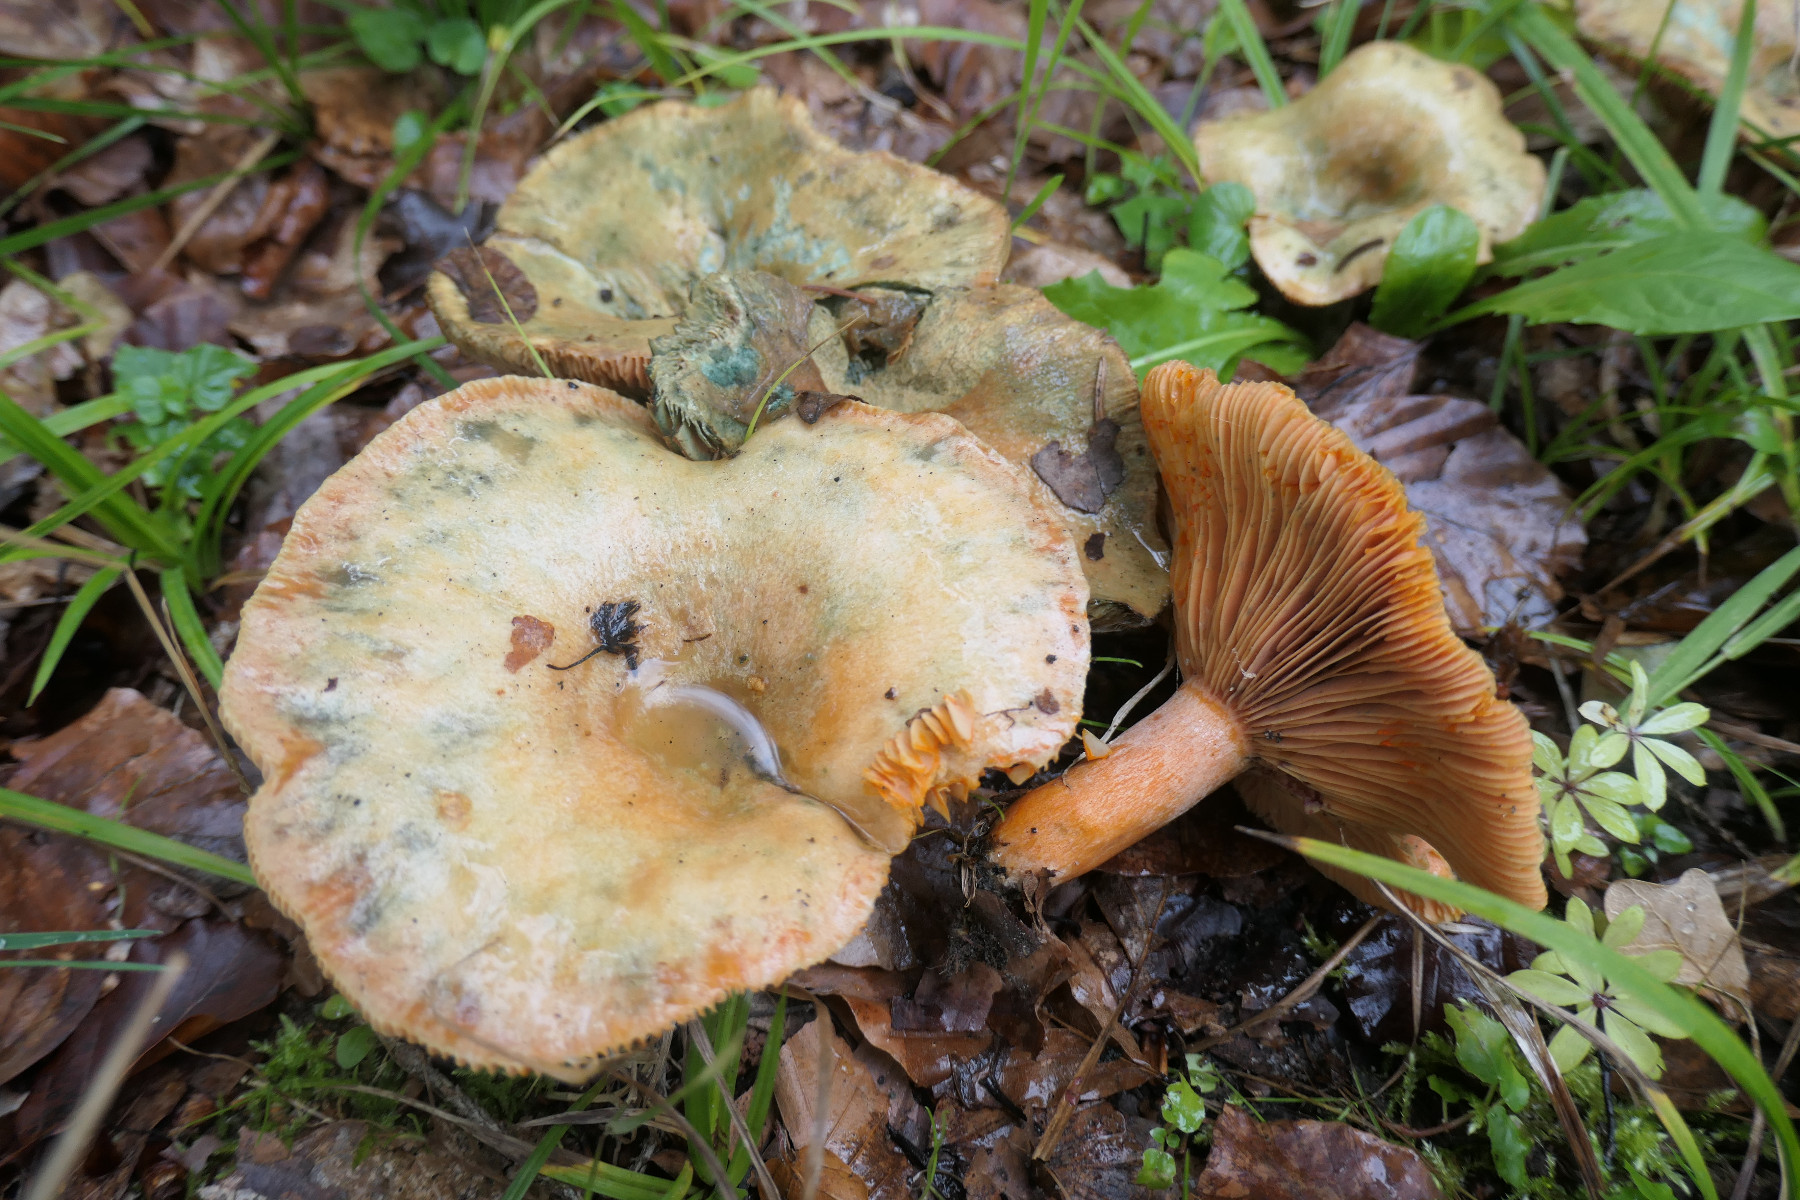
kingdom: Fungi
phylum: Basidiomycota
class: Agaricomycetes
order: Russulales
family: Russulaceae
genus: Lactarius
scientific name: Lactarius deterrimus
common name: gran-mælkehat
